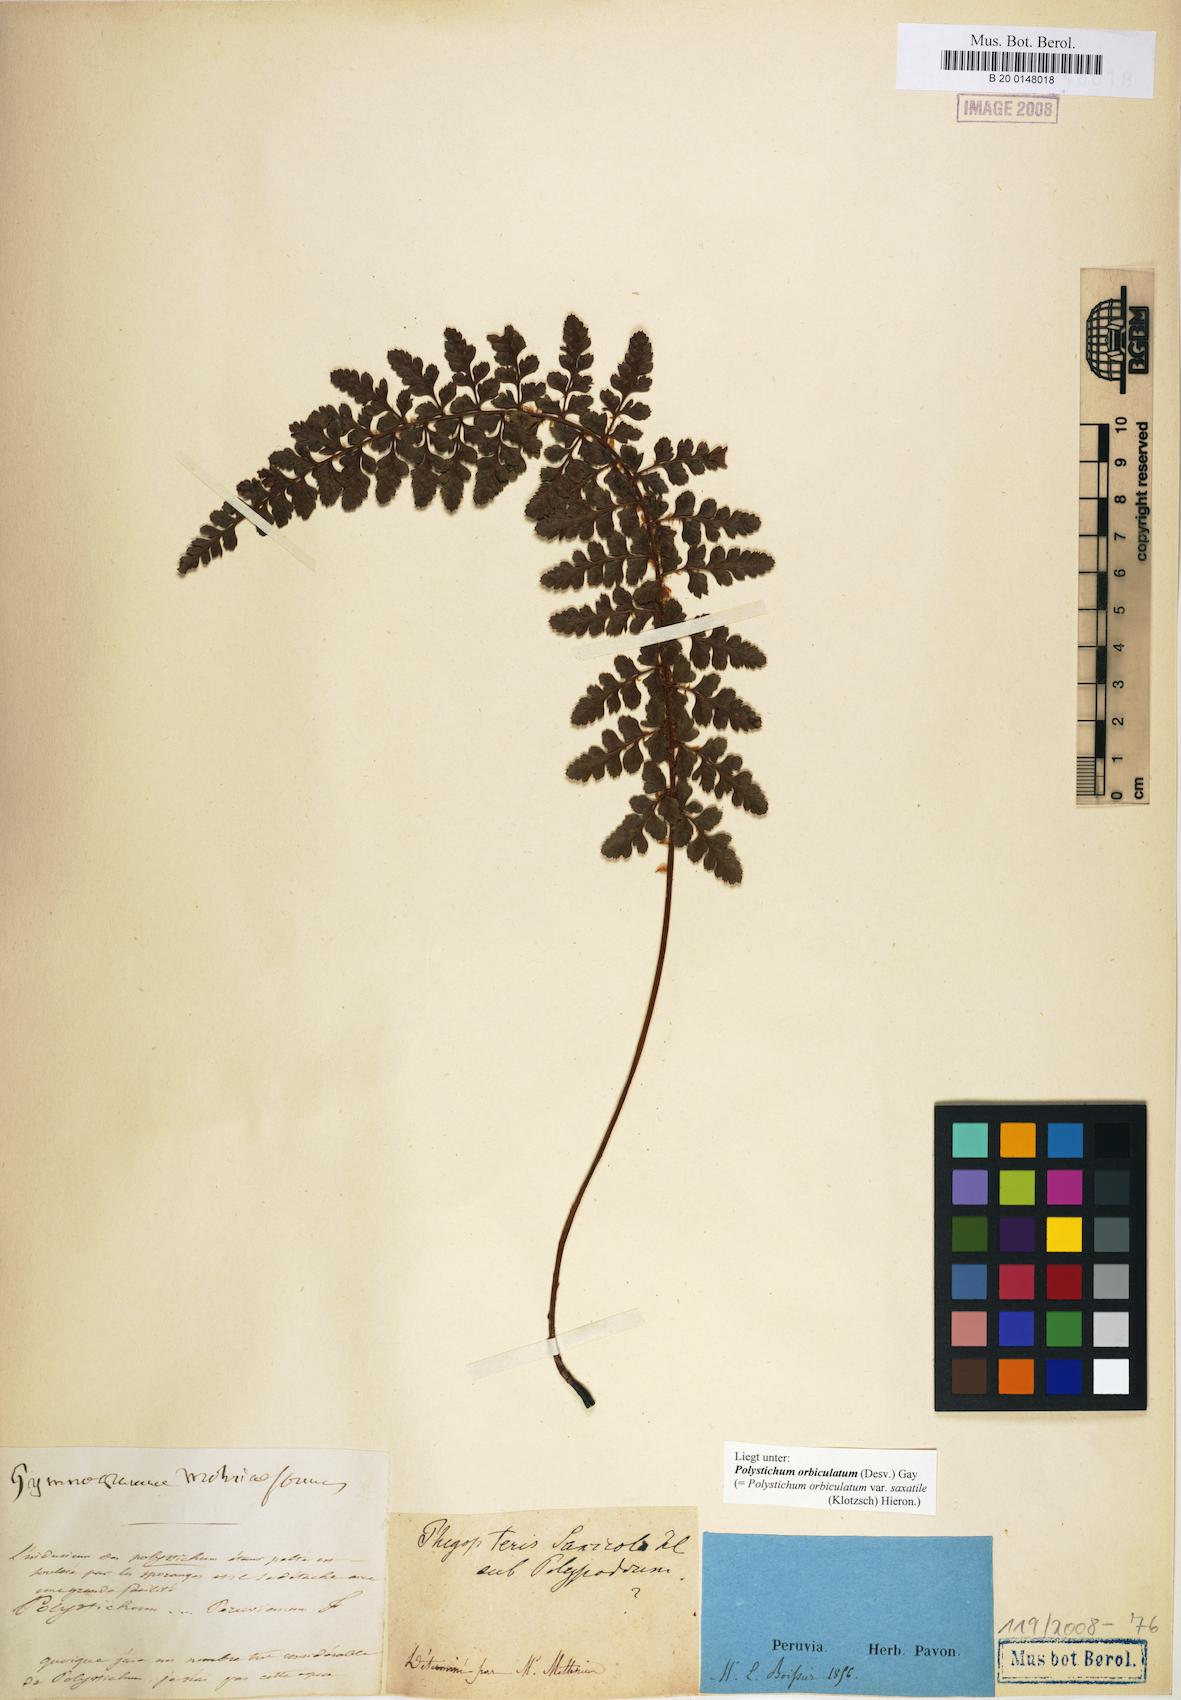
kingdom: Plantae
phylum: Tracheophyta
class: Polypodiopsida
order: Polypodiales
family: Dryopteridaceae
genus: Polystichum
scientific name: Polystichum orbiculatum
